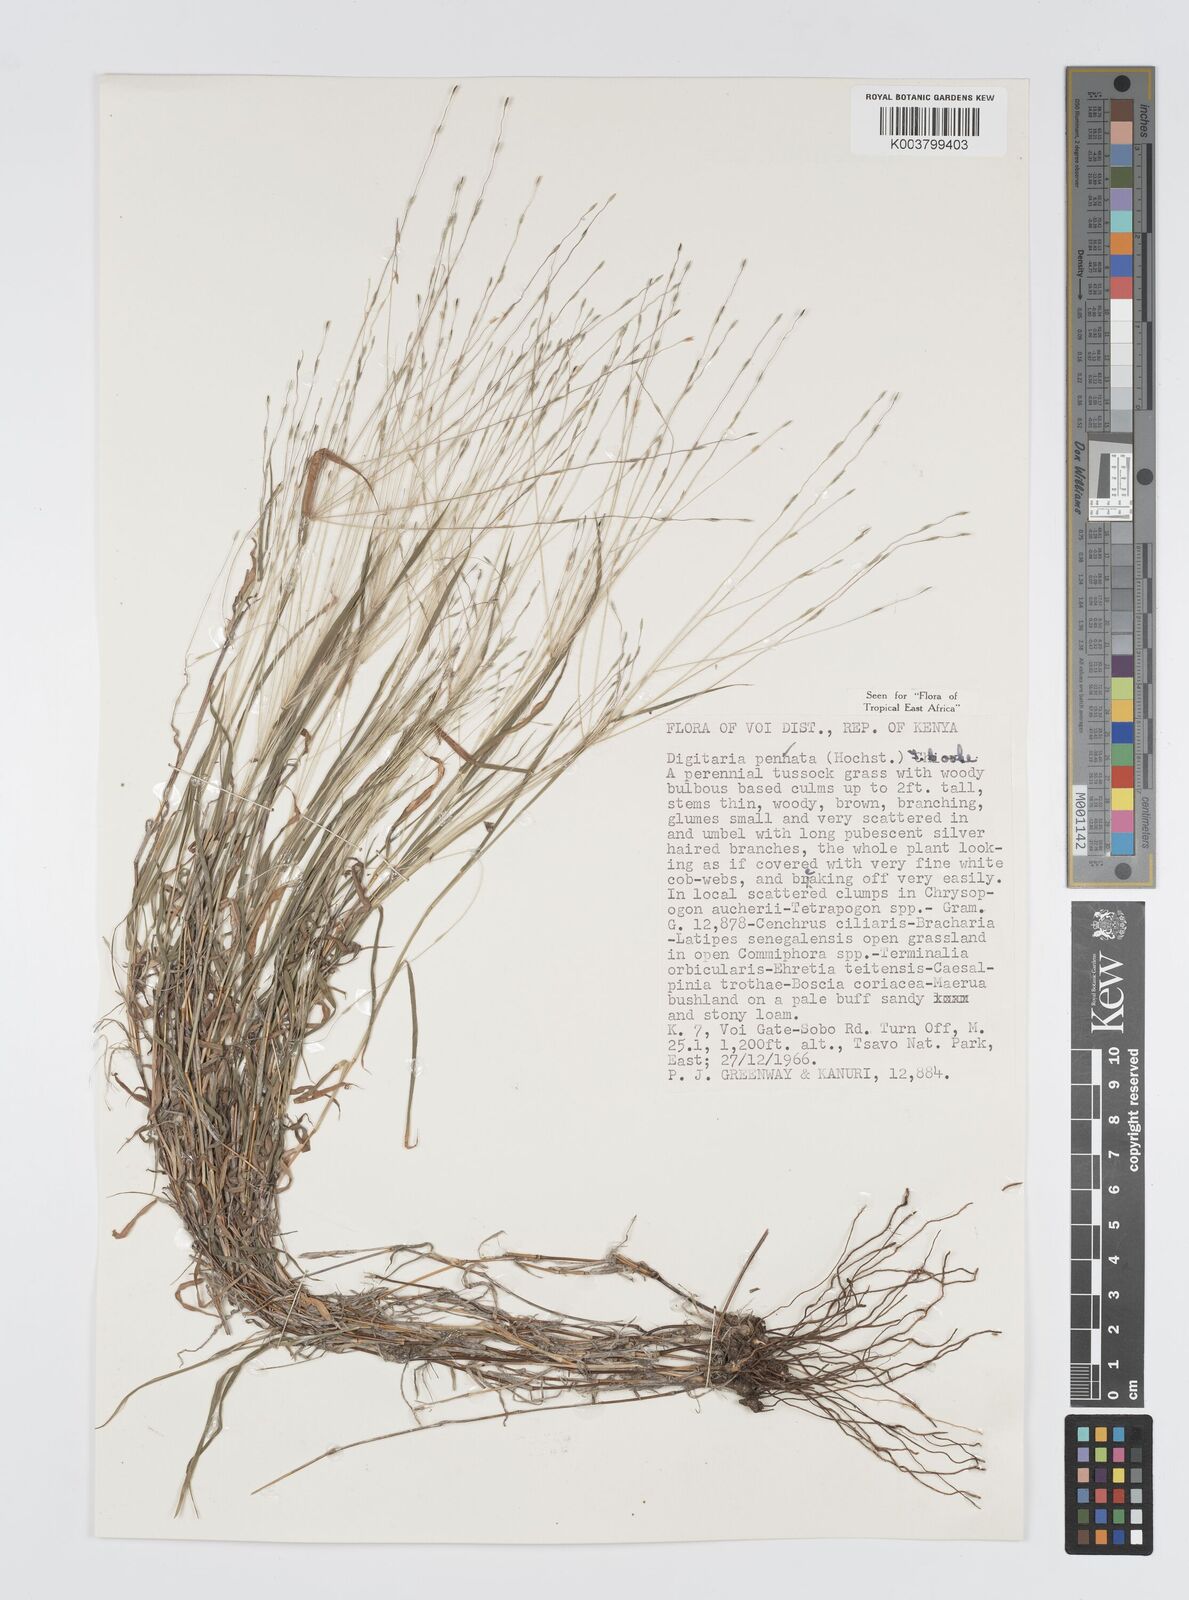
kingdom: Plantae
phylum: Tracheophyta
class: Liliopsida
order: Poales
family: Poaceae
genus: Digitaria
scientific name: Digitaria pennata
